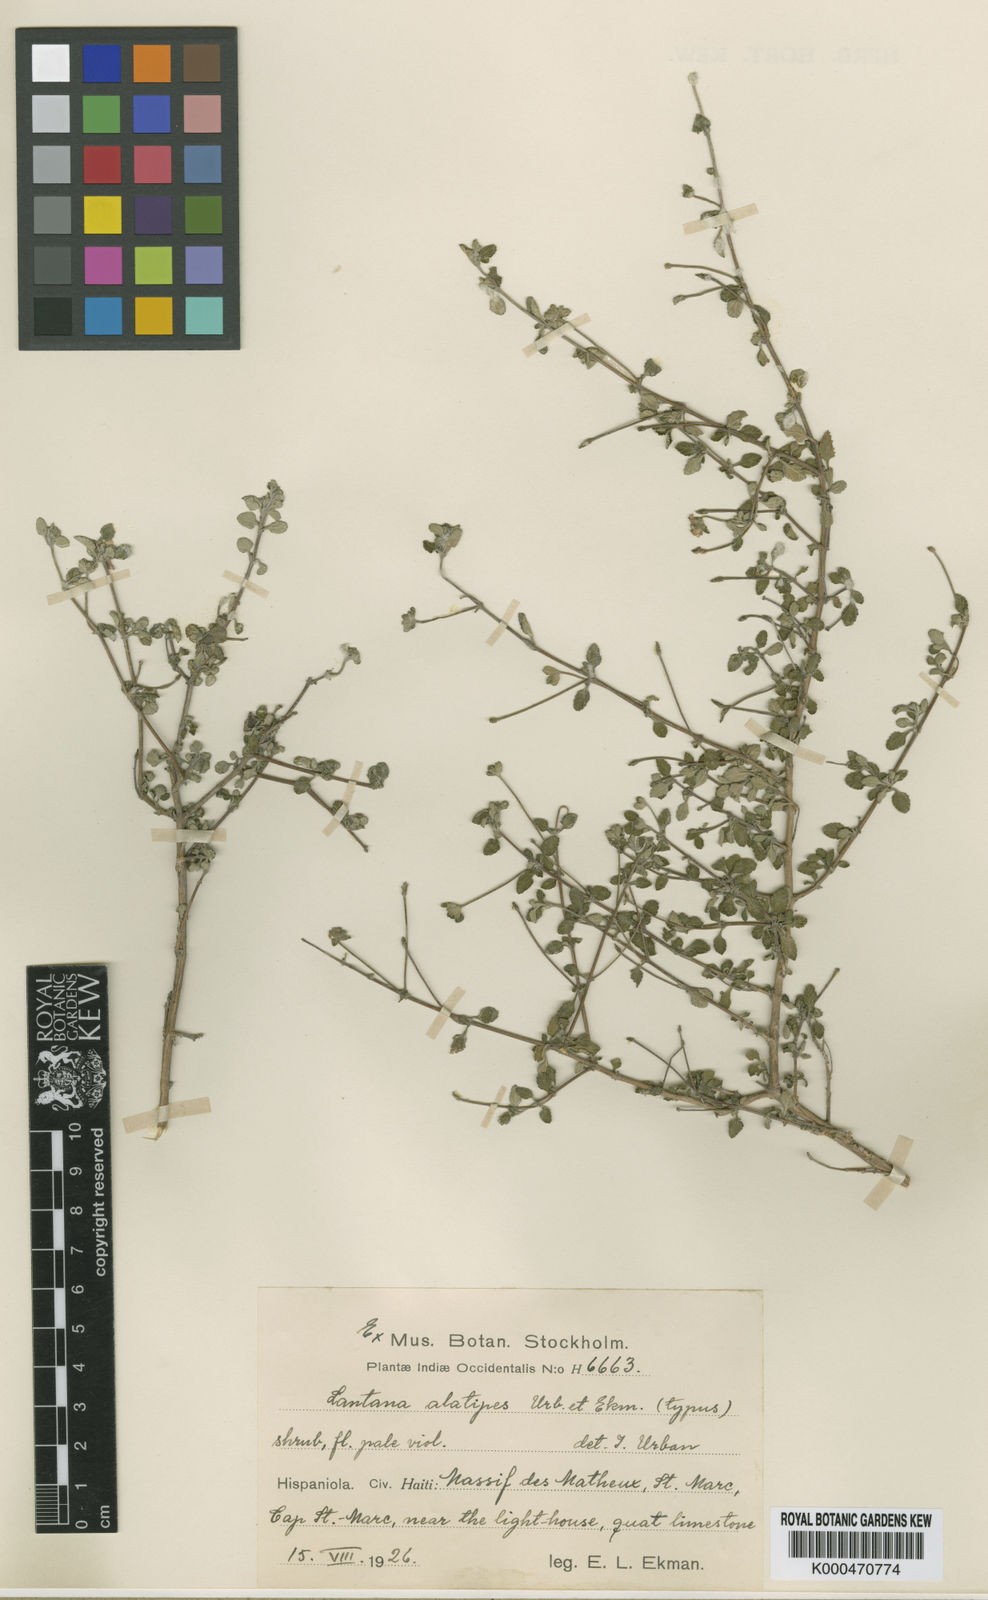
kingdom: Plantae
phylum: Tracheophyta
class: Magnoliopsida
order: Lamiales
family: Verbenaceae
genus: Lantana
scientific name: Lantana exarata
